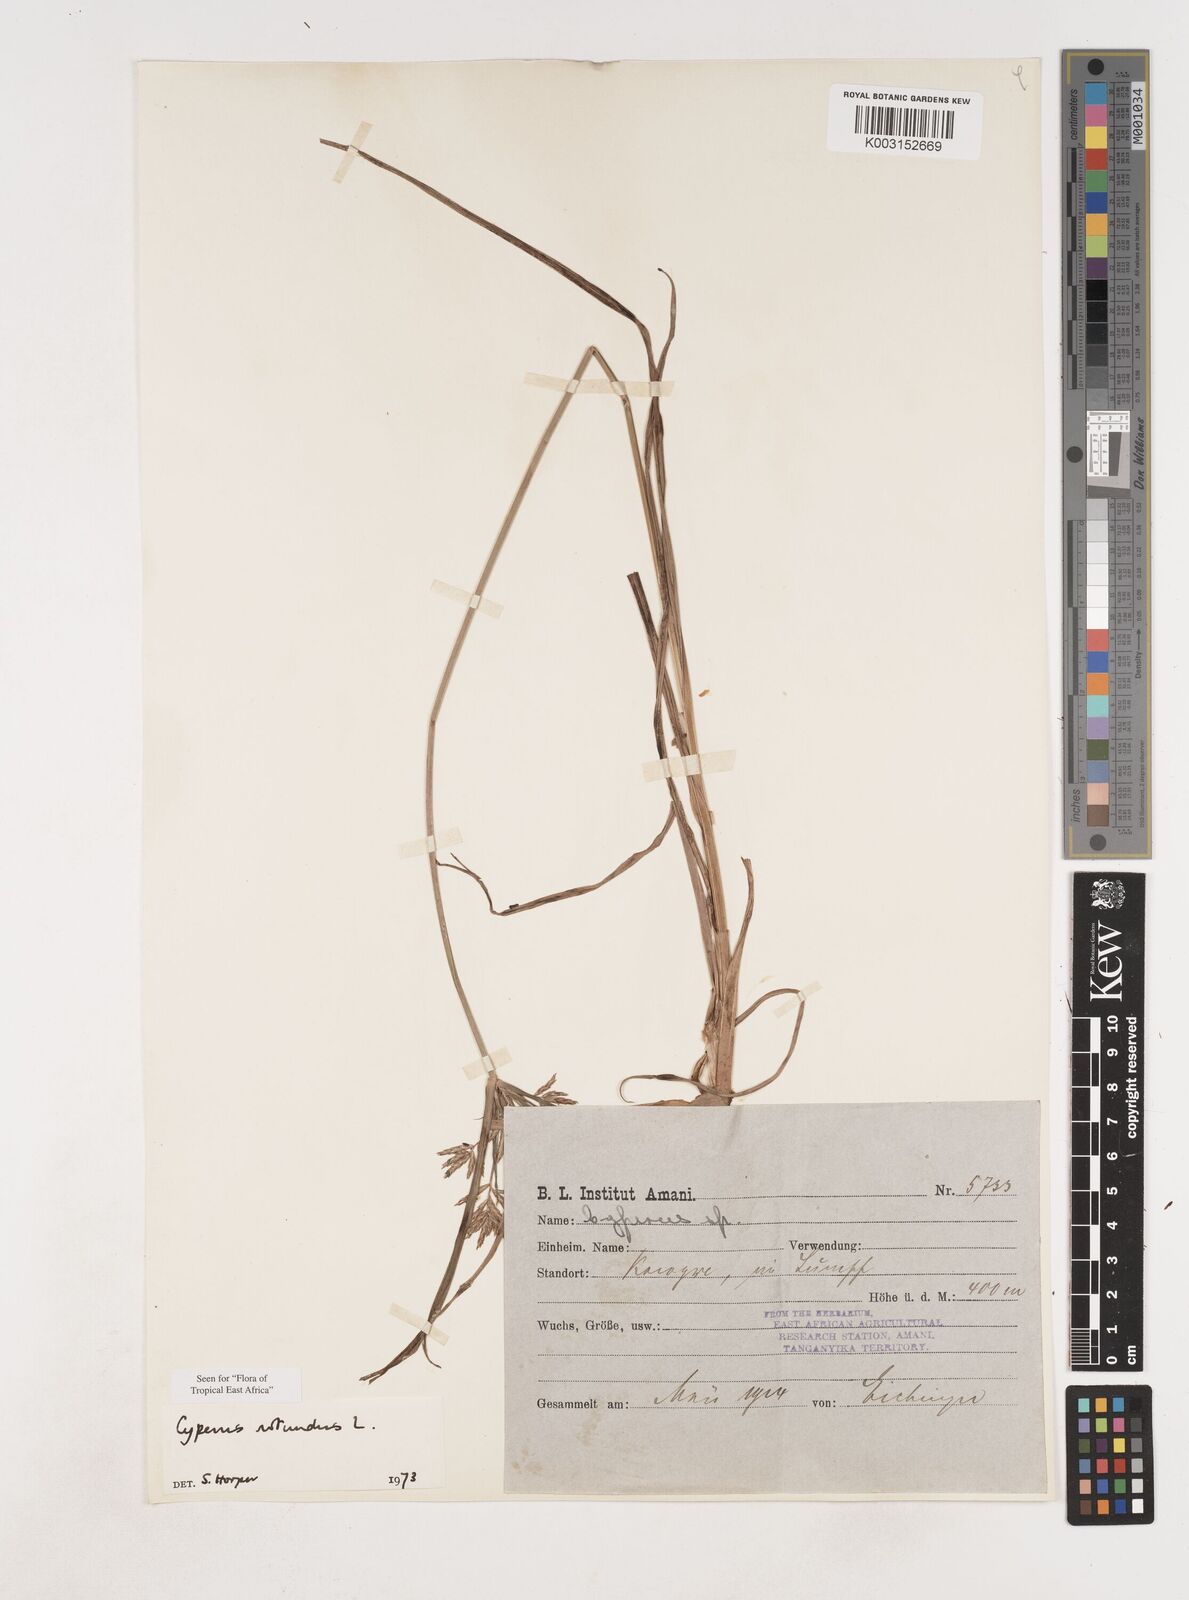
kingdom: Plantae
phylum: Tracheophyta
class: Liliopsida
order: Poales
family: Cyperaceae
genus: Cyperus
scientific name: Cyperus rotundus
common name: Nutgrass
